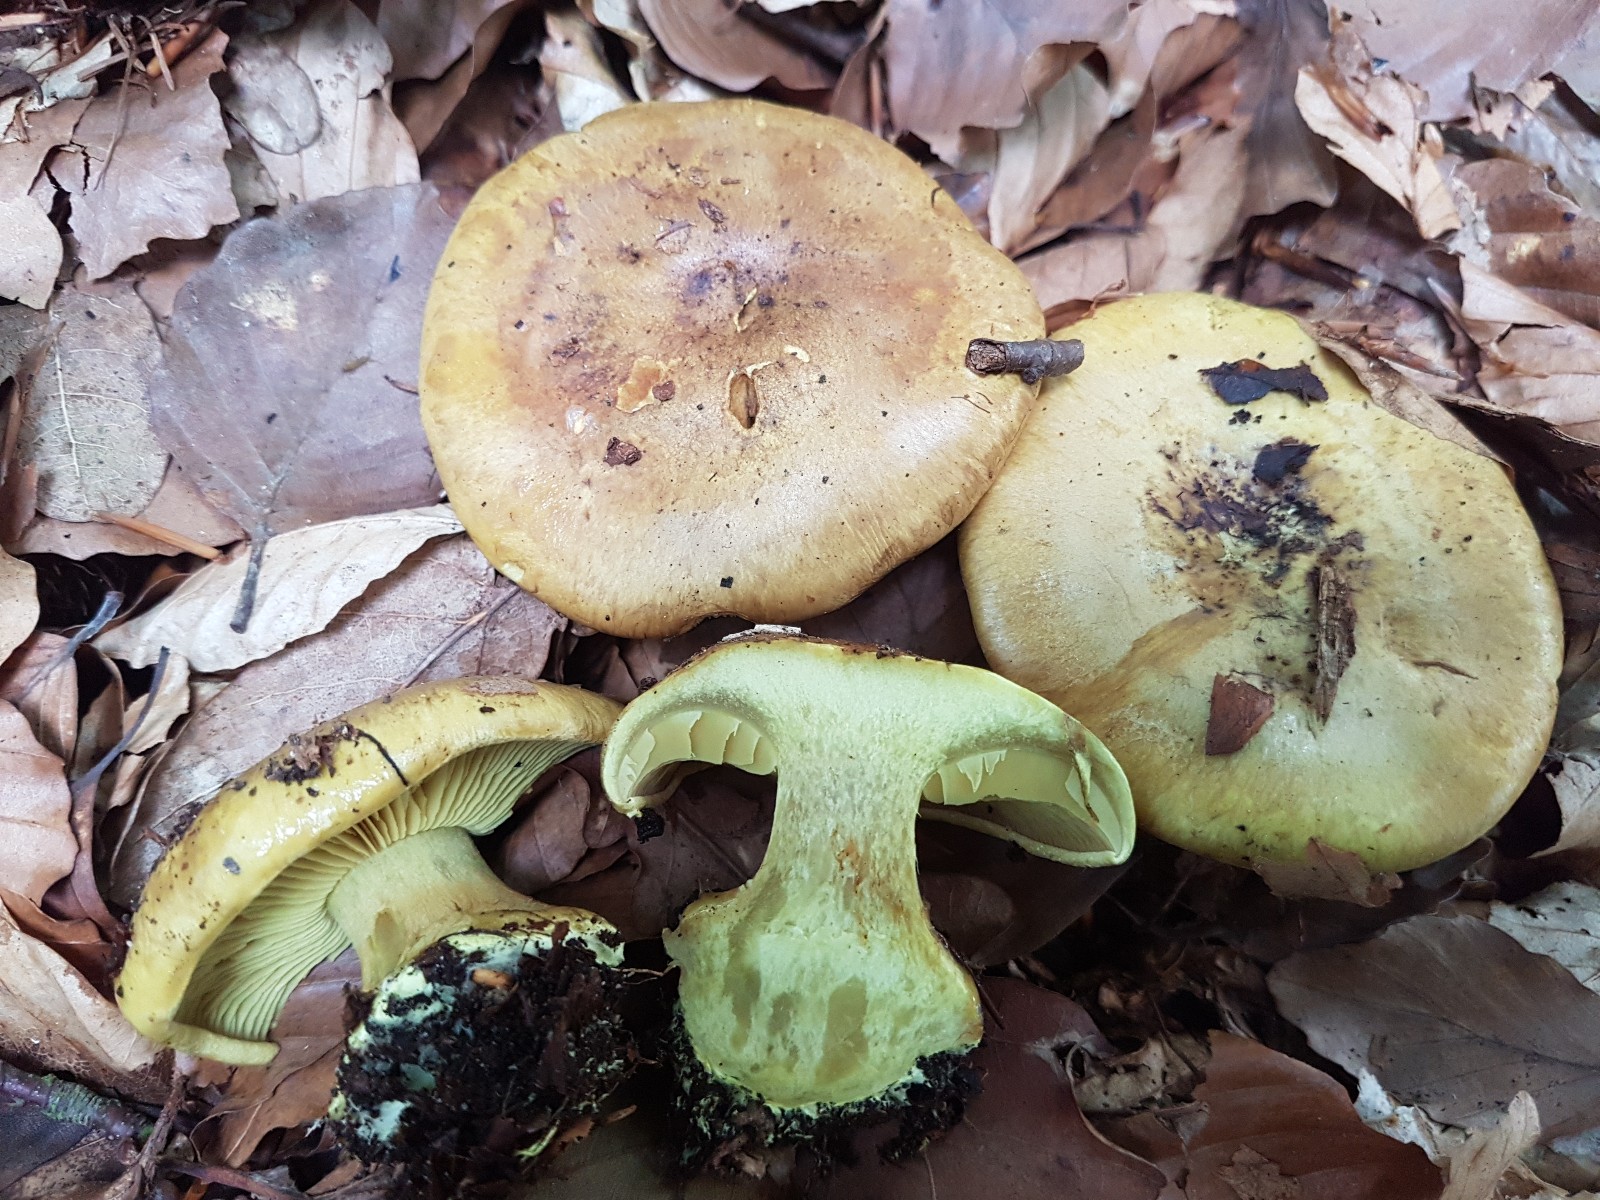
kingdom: Fungi
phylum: Basidiomycota
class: Agaricomycetes
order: Agaricales
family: Cortinariaceae
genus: Calonarius
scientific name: Calonarius citrinus
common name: citrongul slørhat
